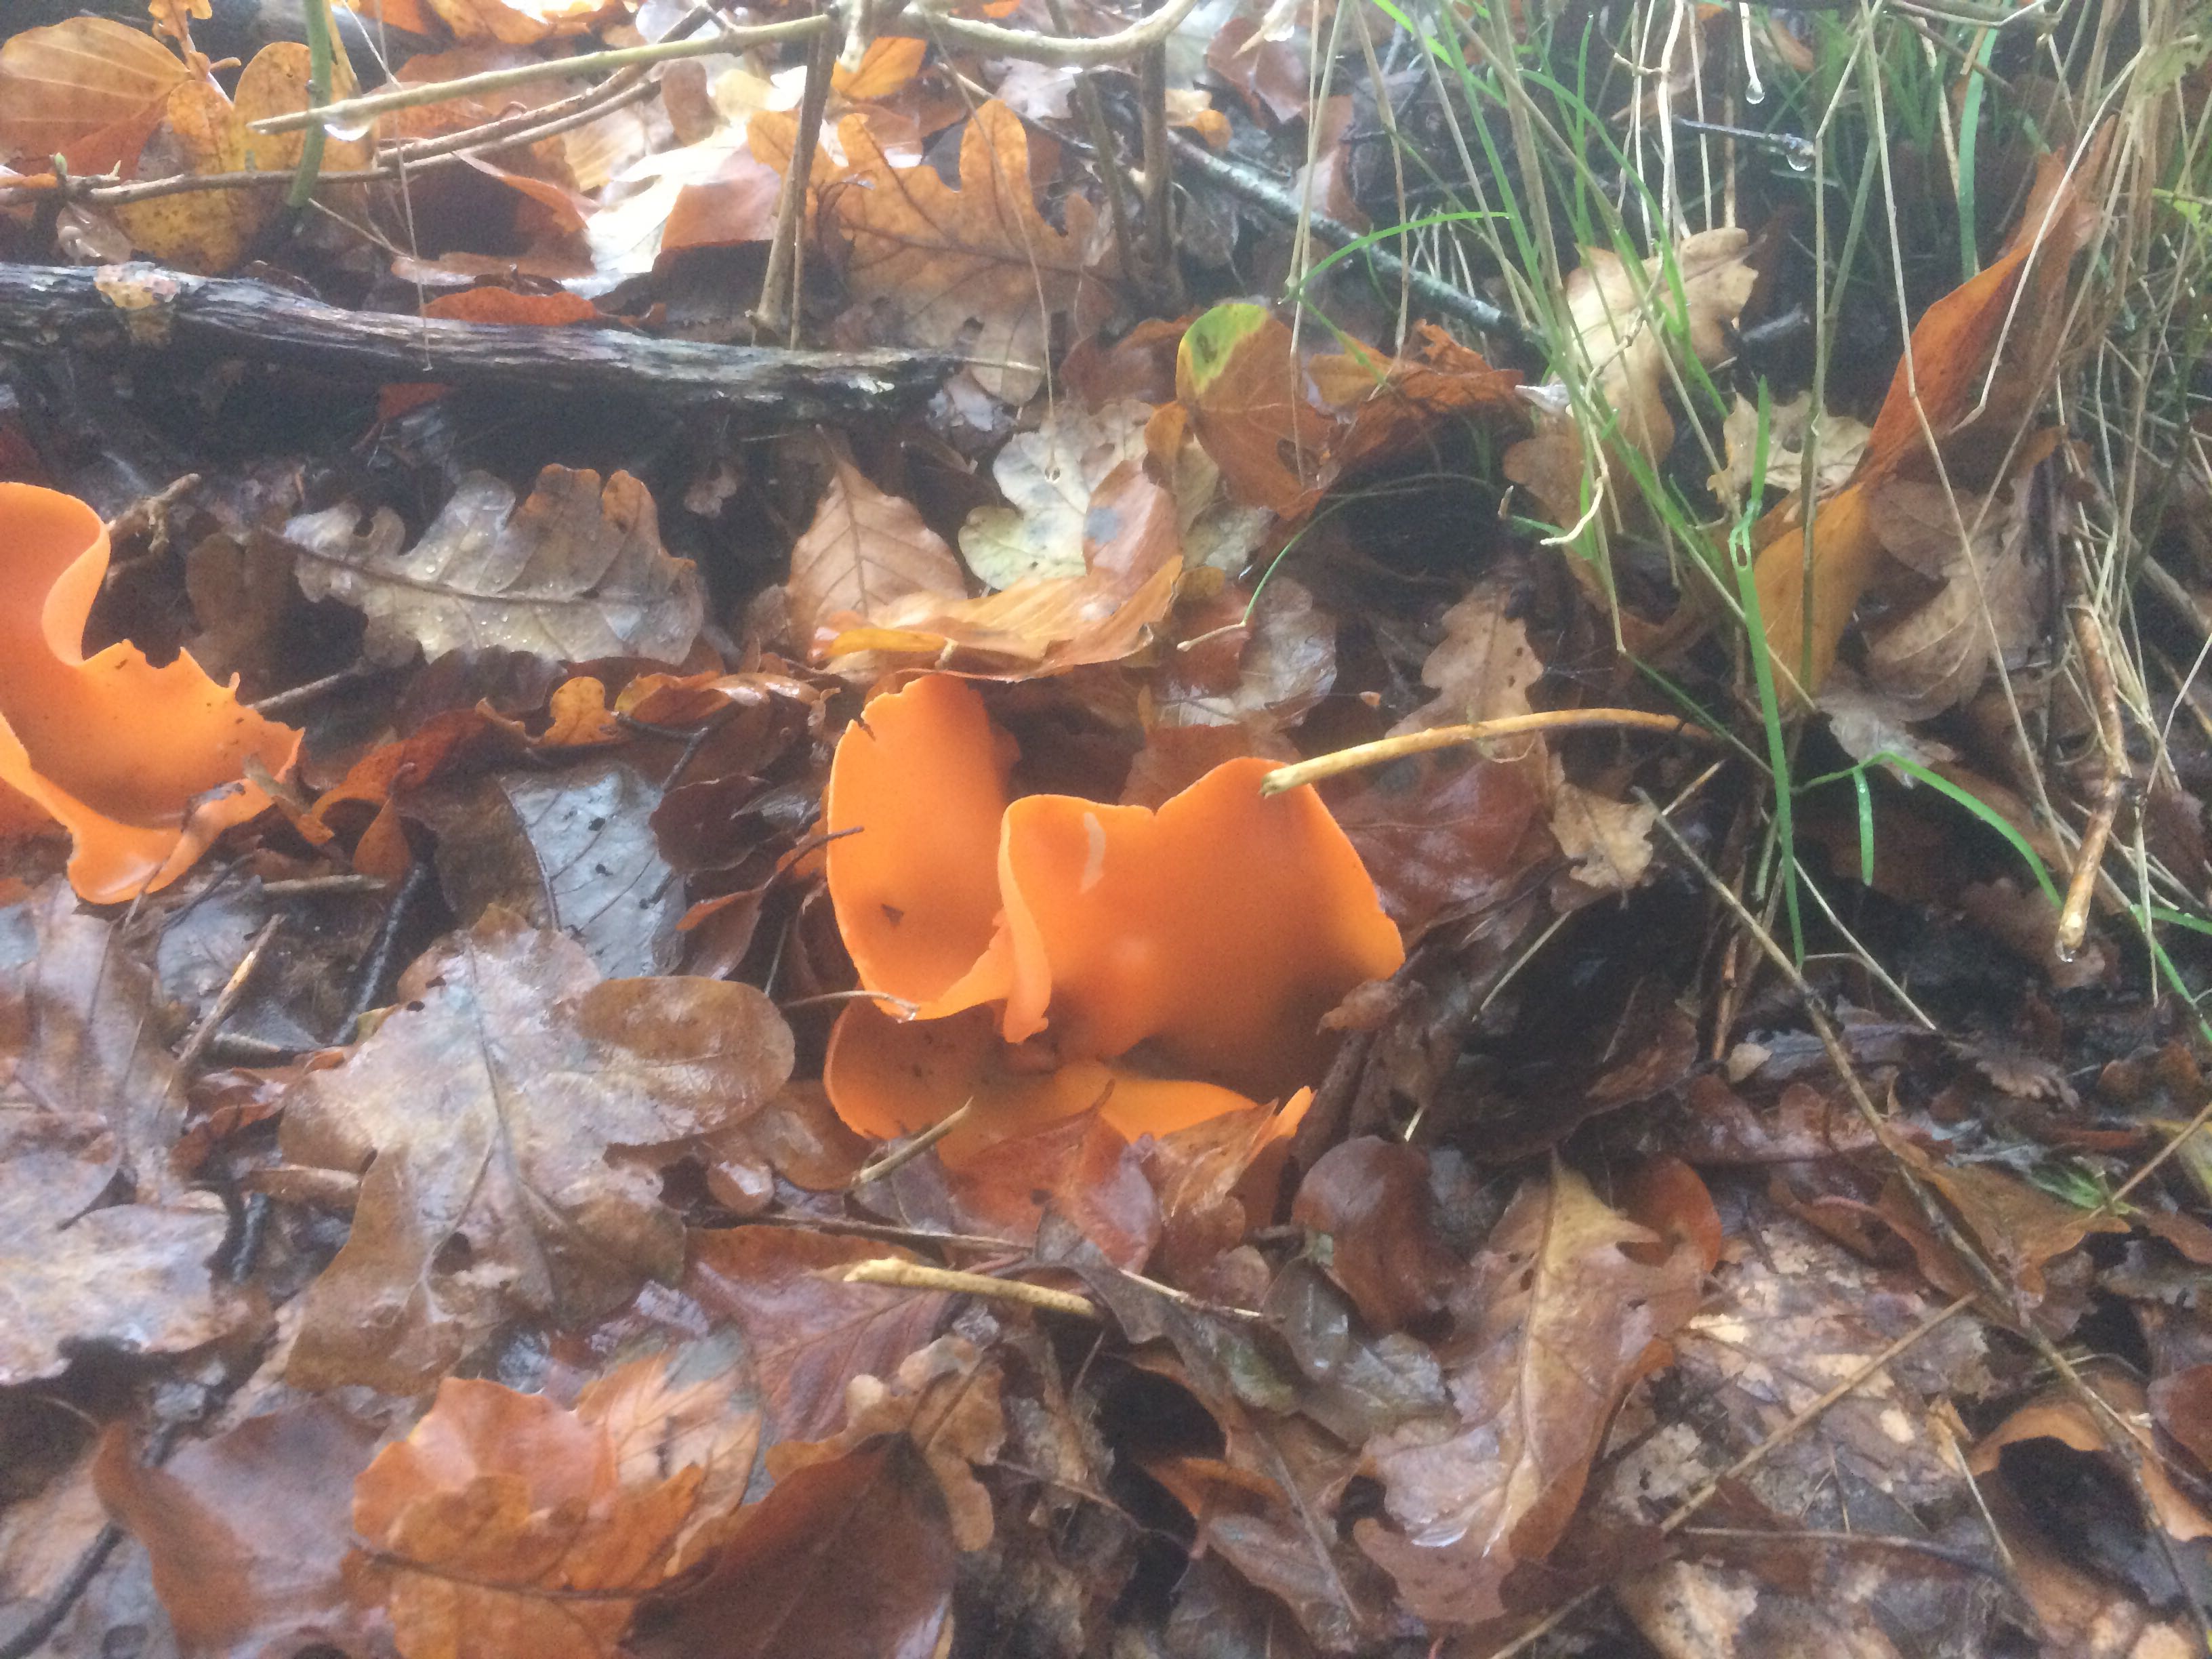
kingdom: Fungi
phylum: Ascomycota
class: Pezizomycetes
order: Pezizales
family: Pyronemataceae
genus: Aleuria
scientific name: Aleuria aurantia
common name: almindelig orangebæger
